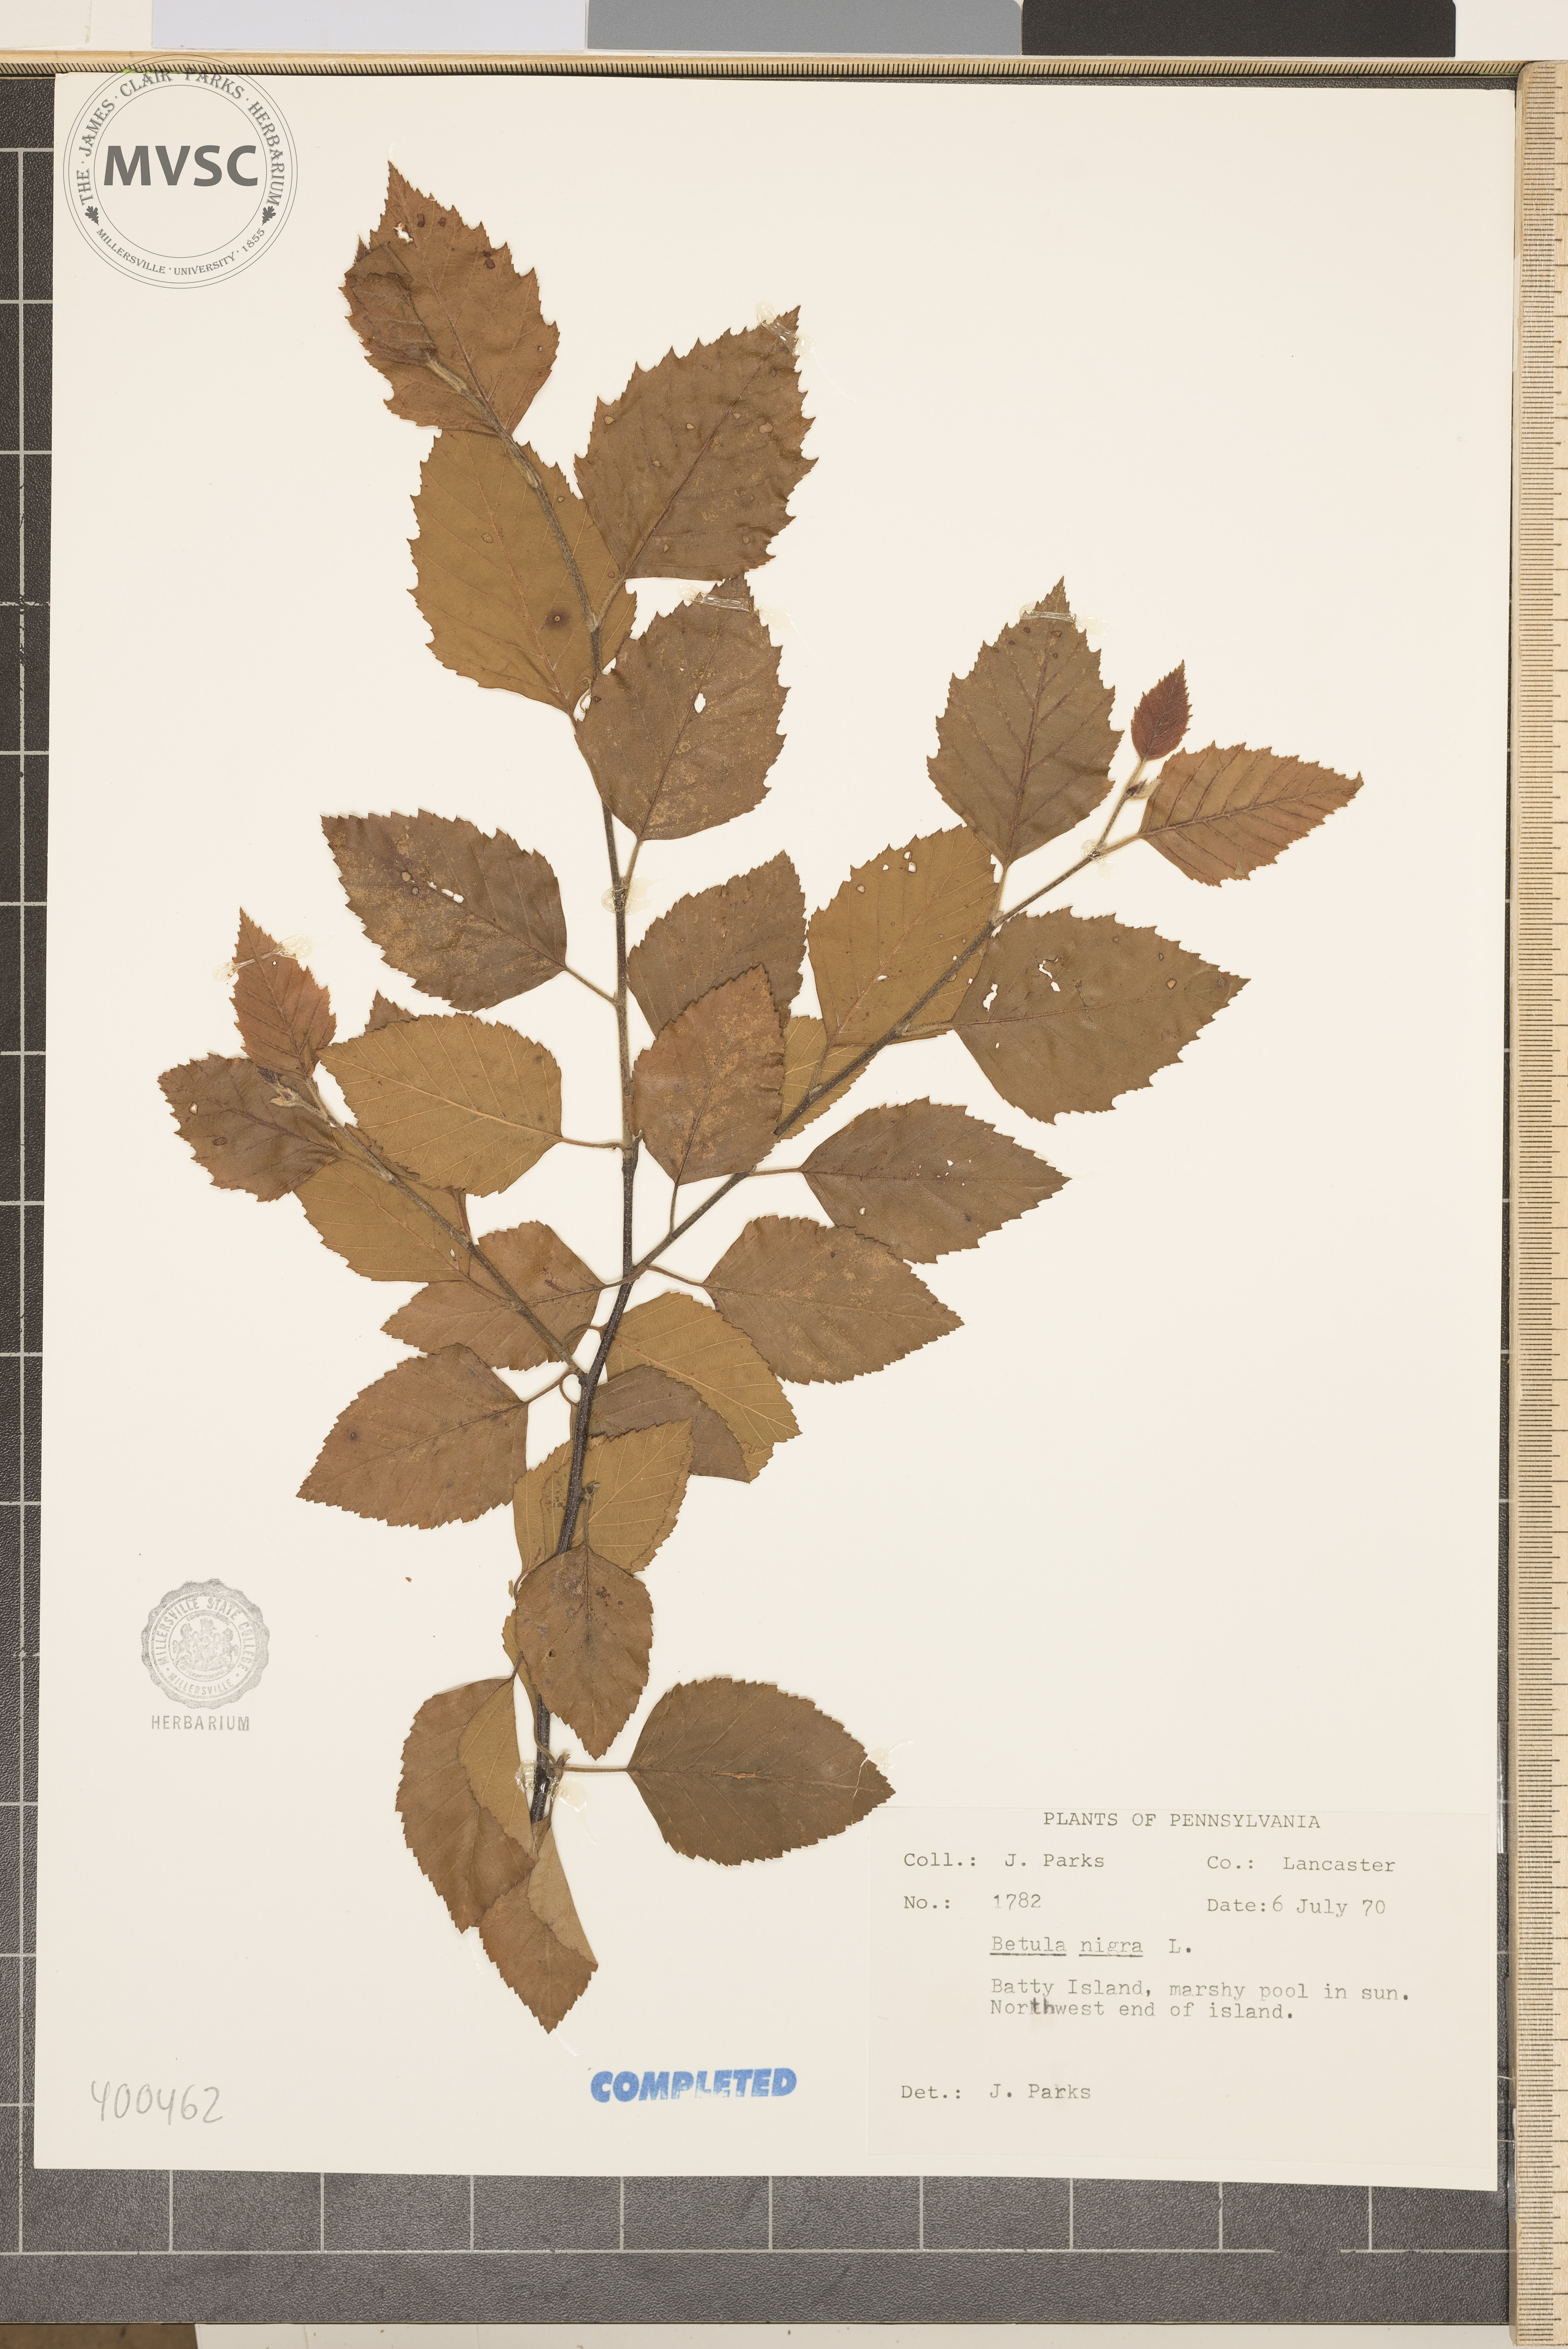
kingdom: Plantae
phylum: Tracheophyta
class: Magnoliopsida
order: Fagales
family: Betulaceae
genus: Betula
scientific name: Betula nigra
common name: river birch
